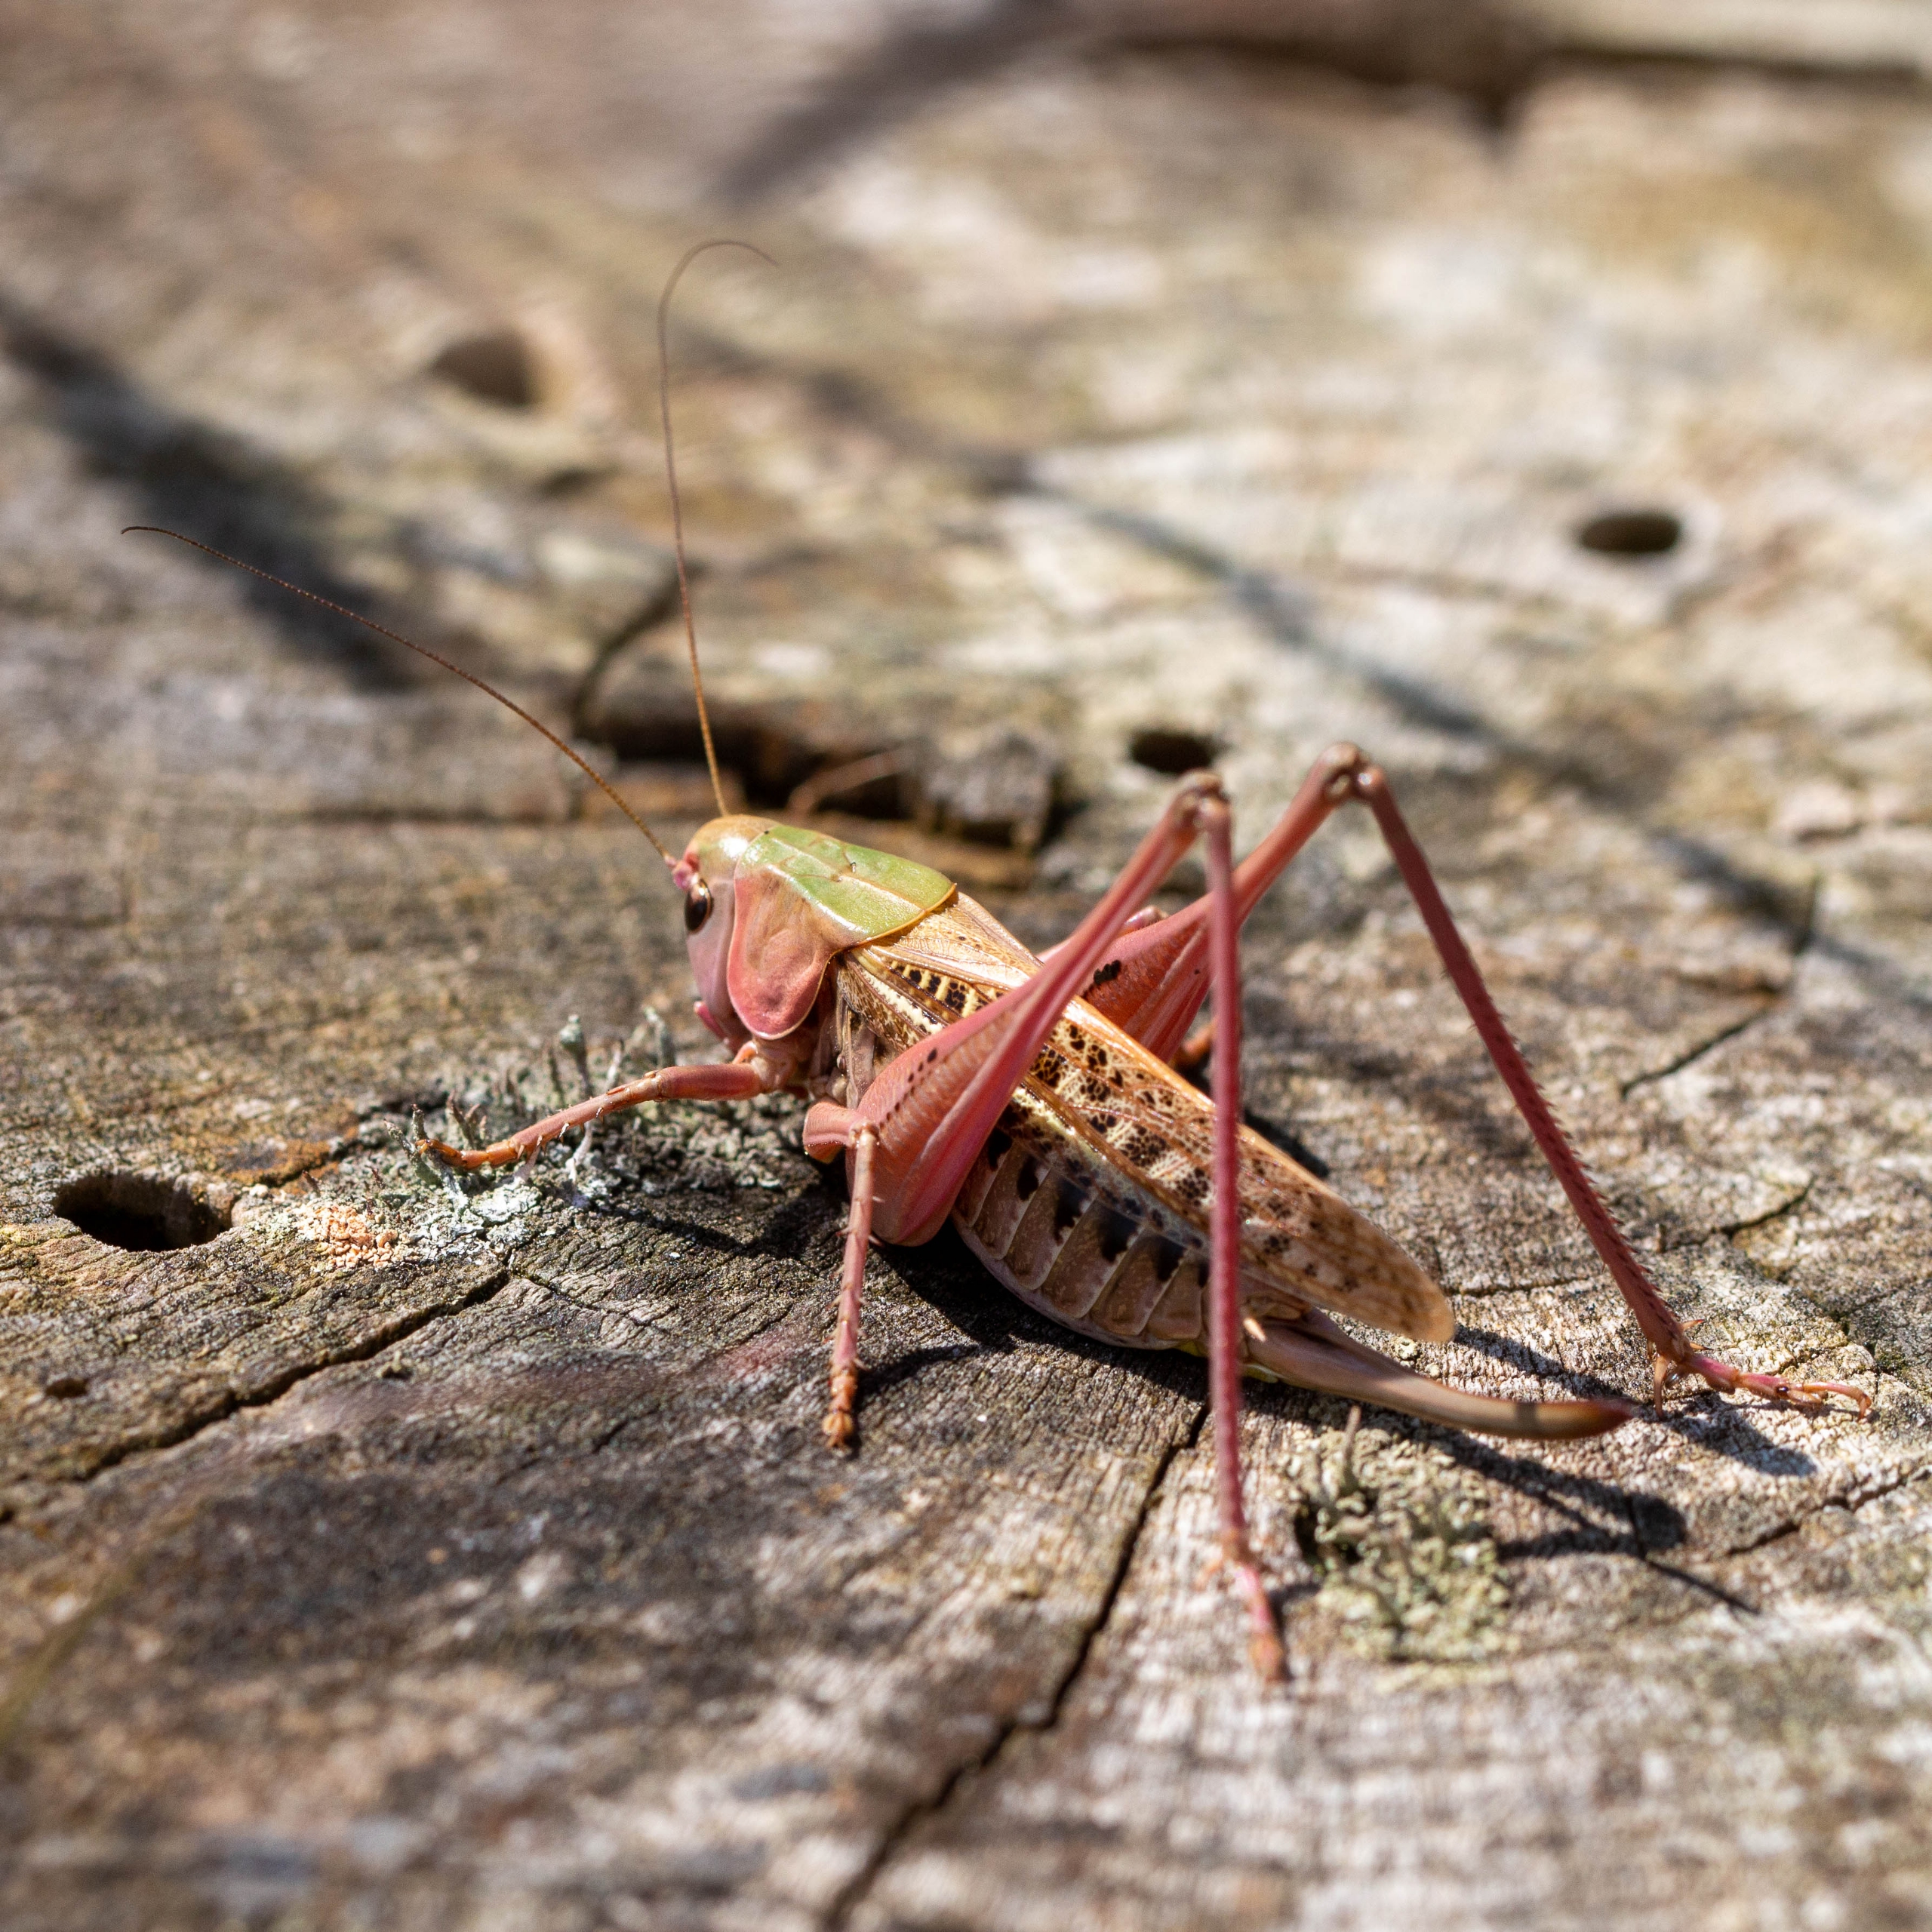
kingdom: Animalia
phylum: Arthropoda
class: Insecta
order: Orthoptera
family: Tettigoniidae
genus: Decticus
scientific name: Decticus verrucivorus
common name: Vortebider
